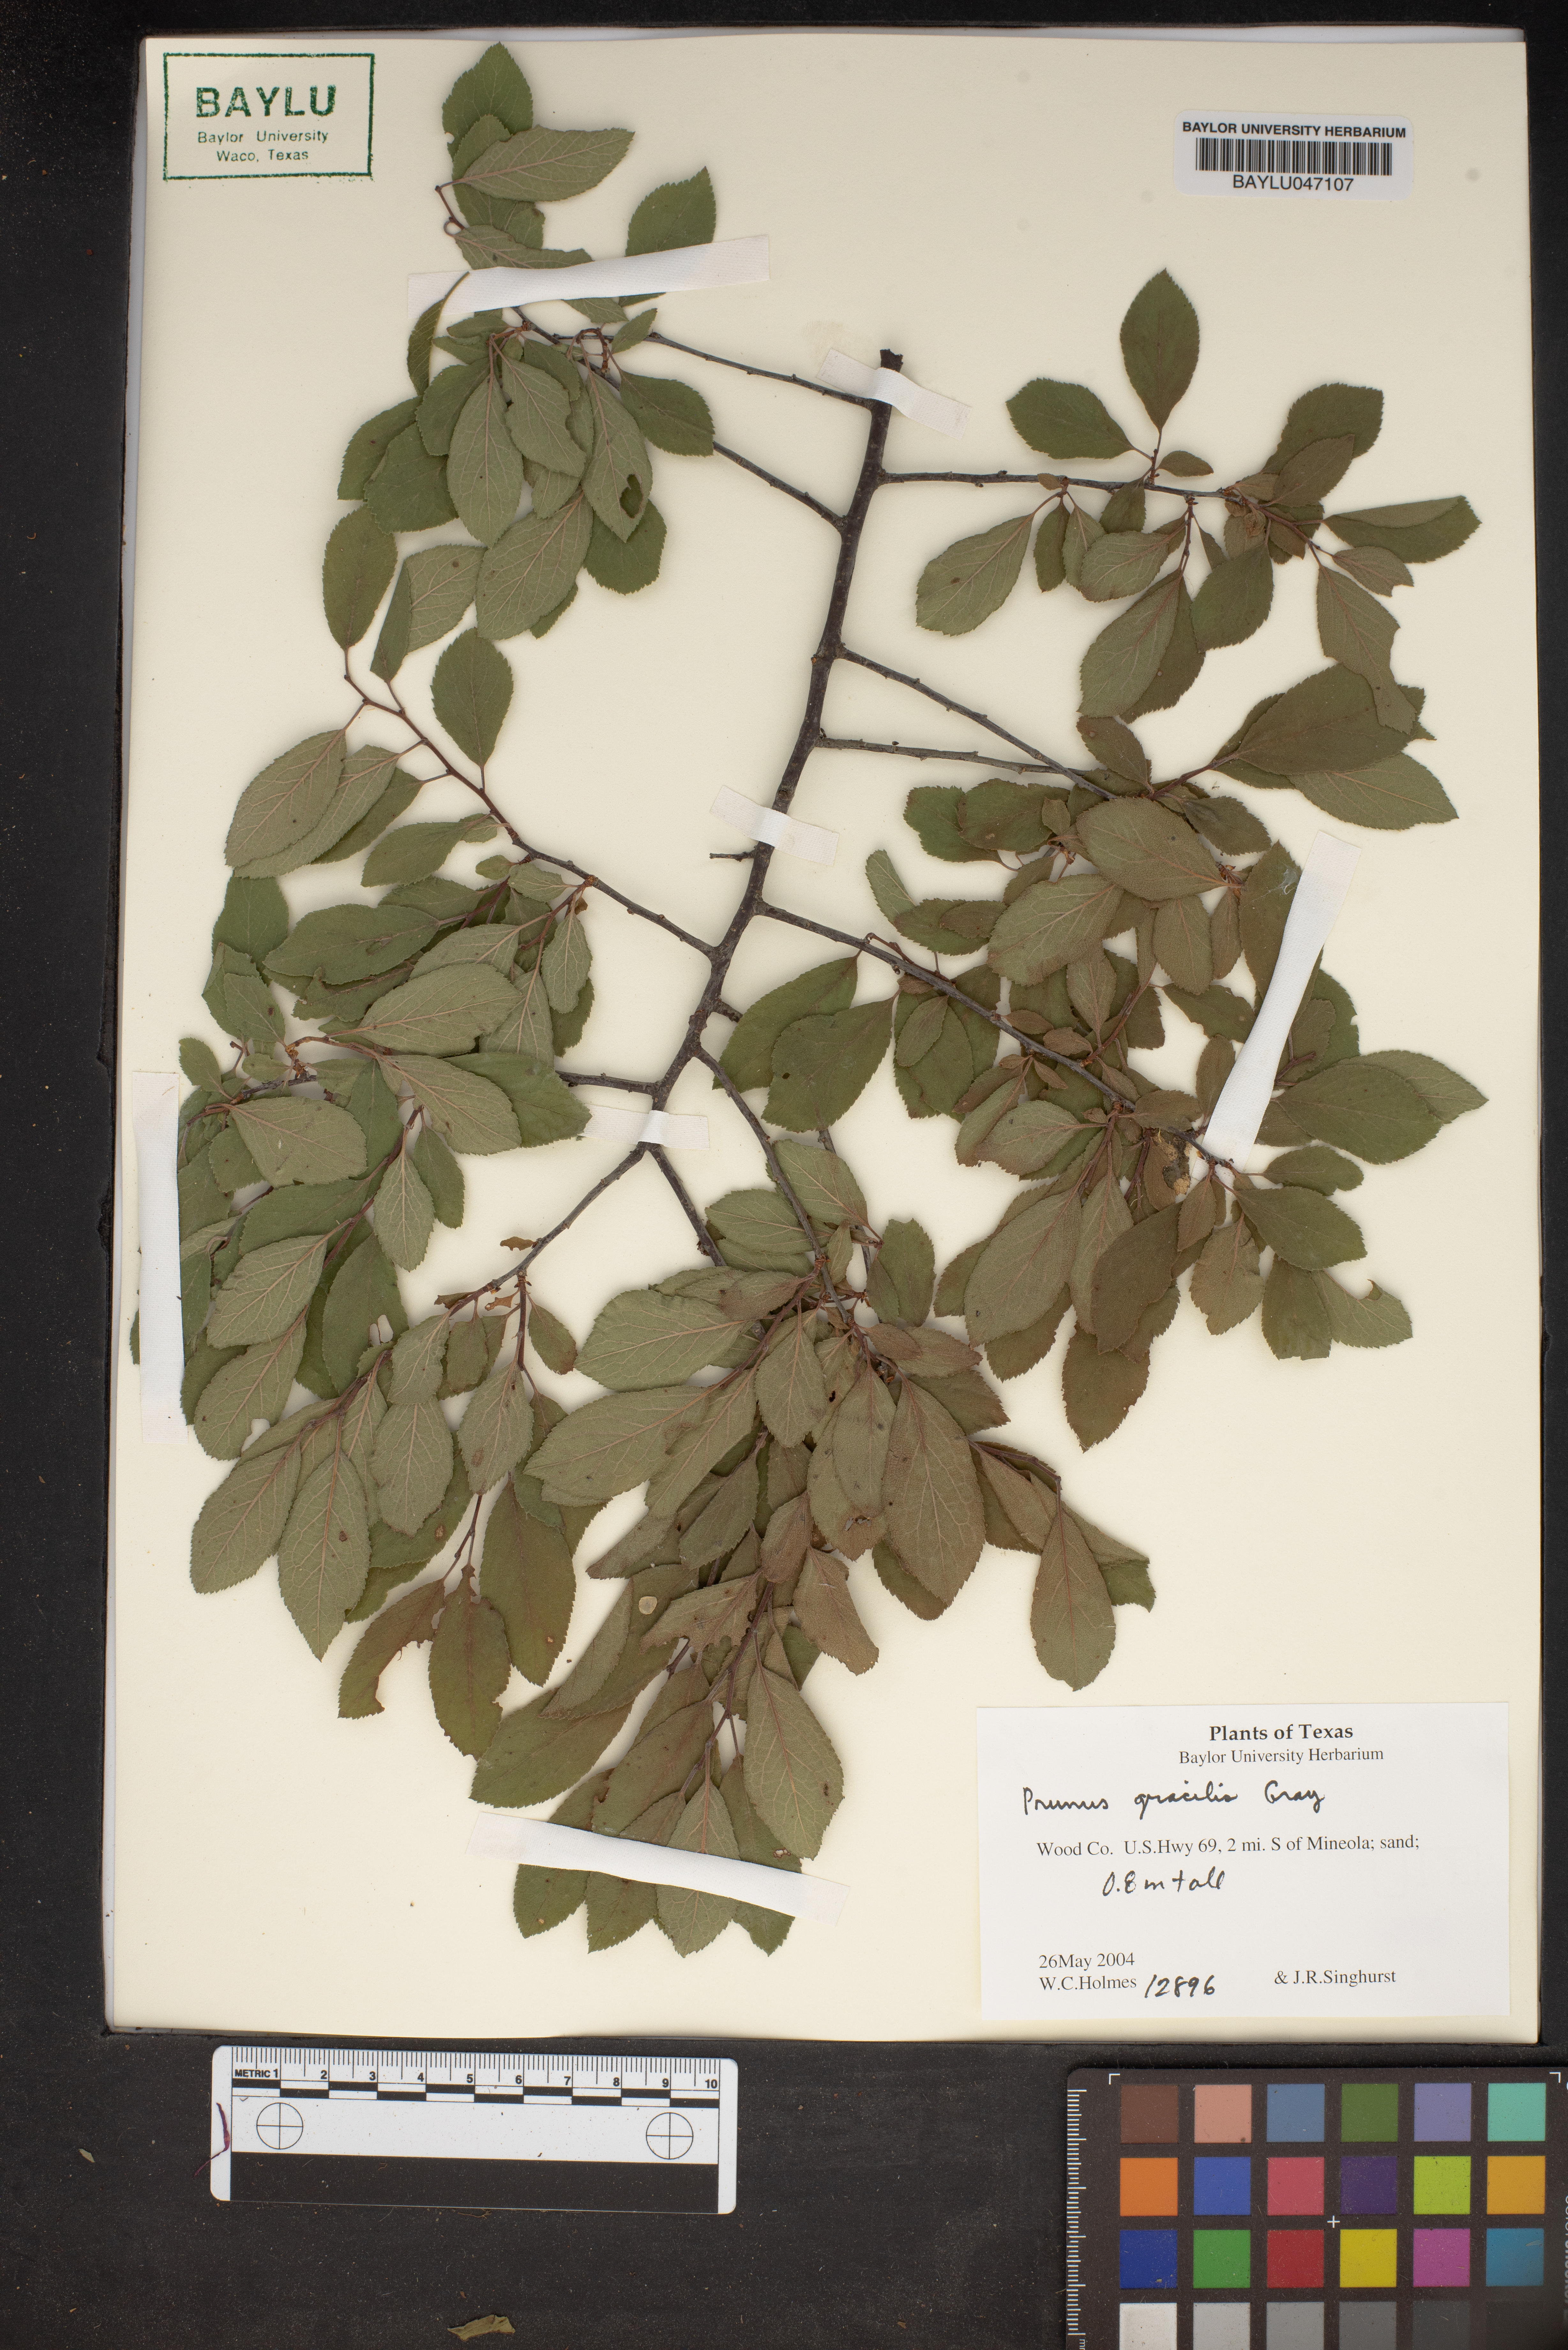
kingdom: Plantae
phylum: Tracheophyta
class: Magnoliopsida
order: Rosales
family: Rosaceae
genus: Prunus
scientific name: Prunus gracilis
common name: Oklahoma plum
